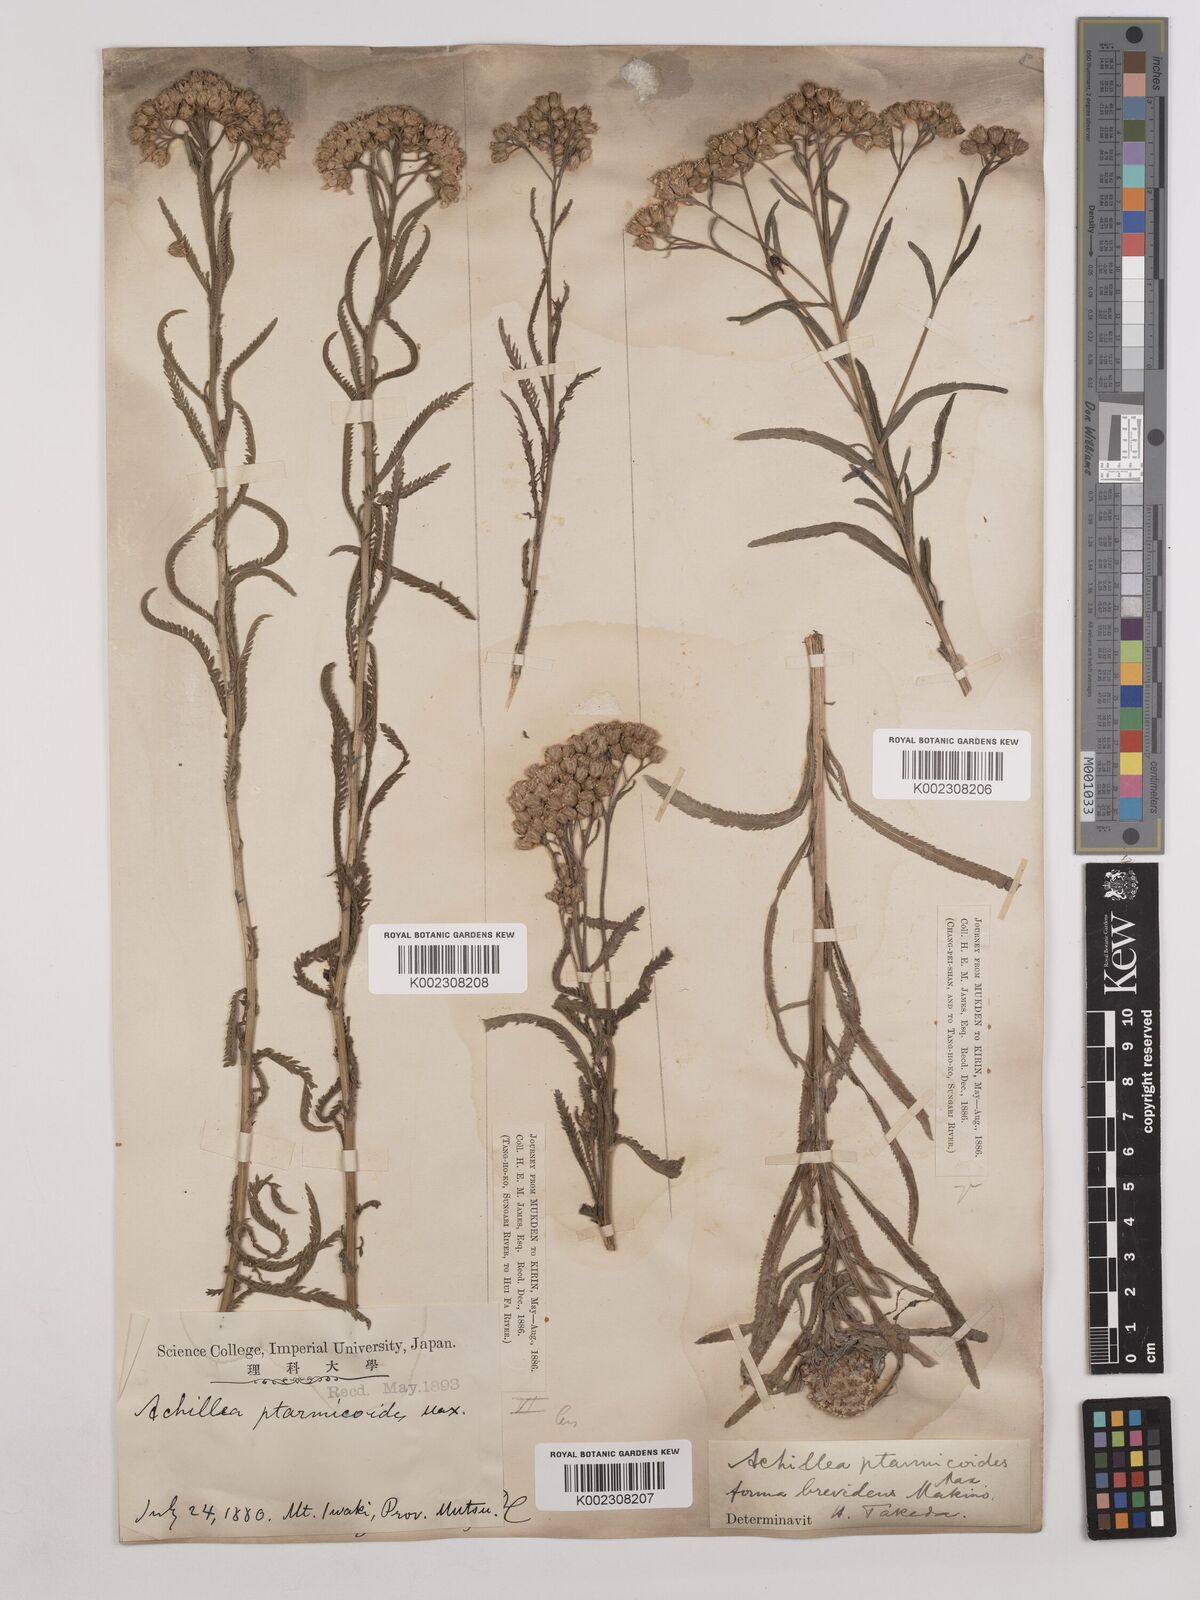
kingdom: Plantae
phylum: Tracheophyta
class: Magnoliopsida
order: Asterales
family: Asteraceae
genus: Achillea
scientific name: Achillea alpina
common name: Siberian yarrow
